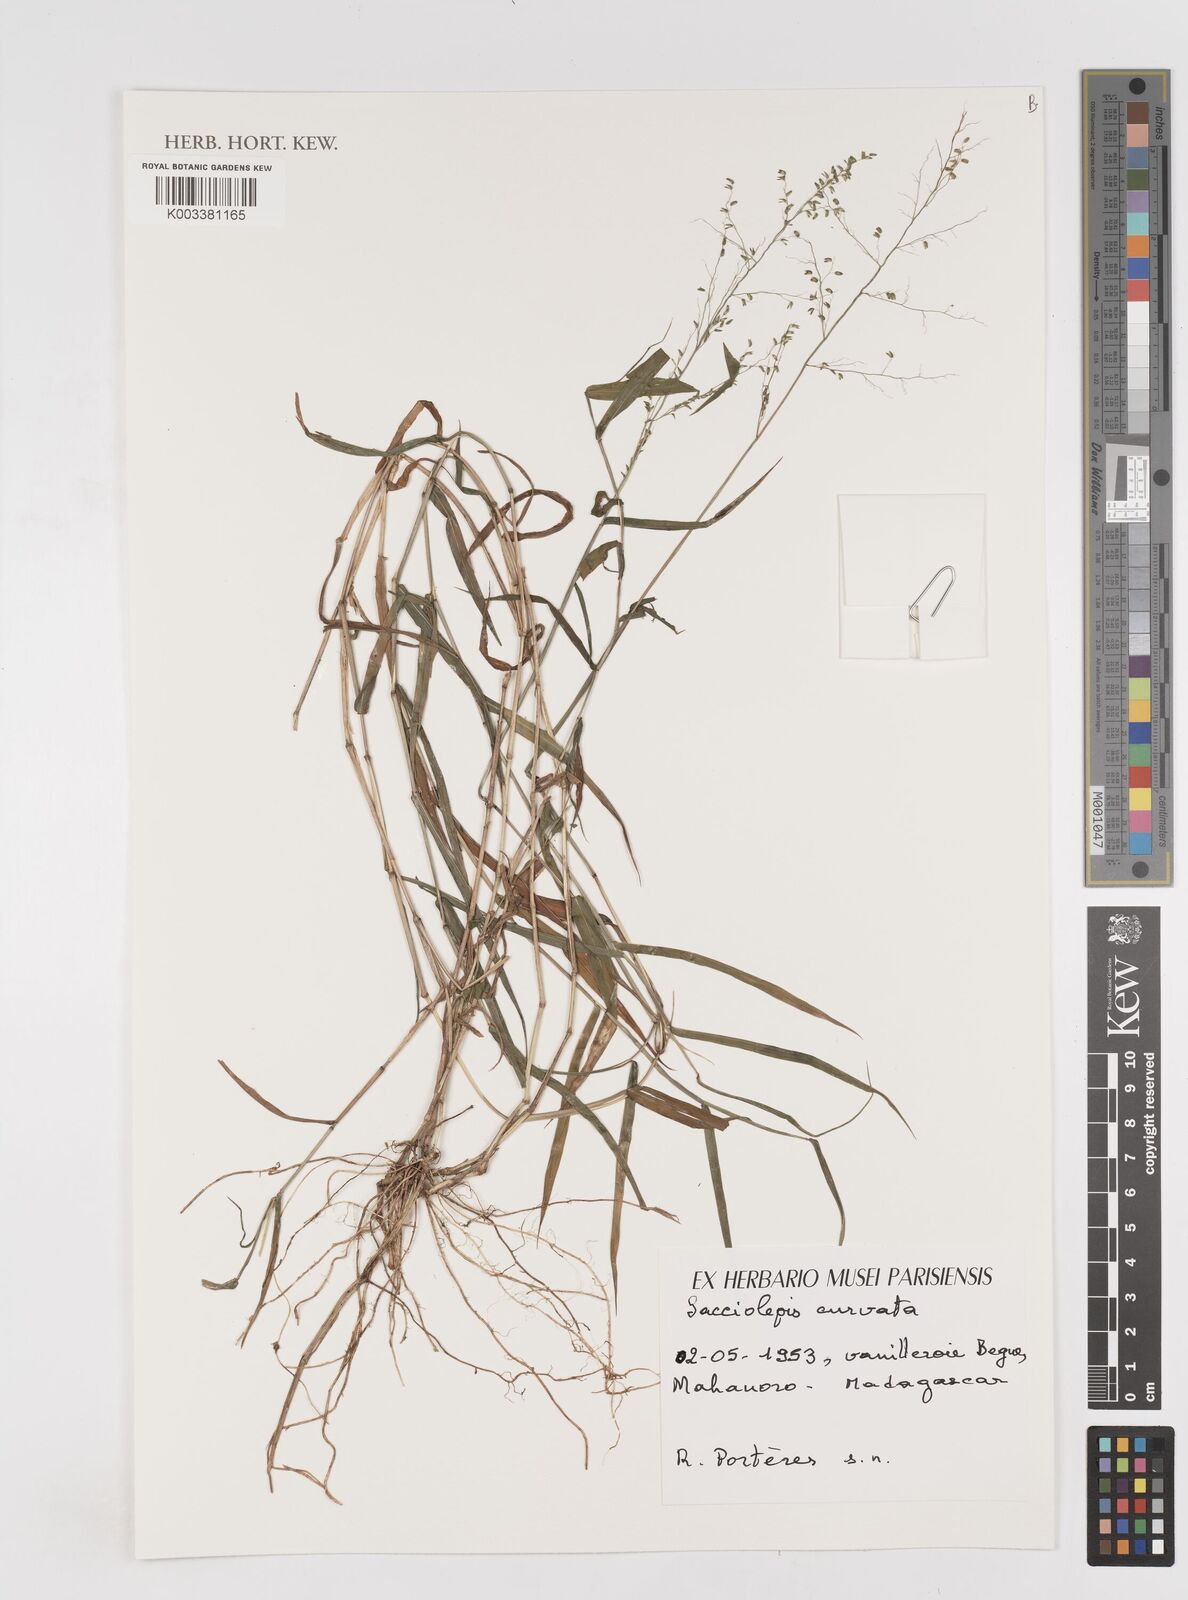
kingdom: Plantae
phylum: Tracheophyta
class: Liliopsida
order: Poales
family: Poaceae
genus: Sacciolepis
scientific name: Sacciolepis curvata
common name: Forest hood grass
